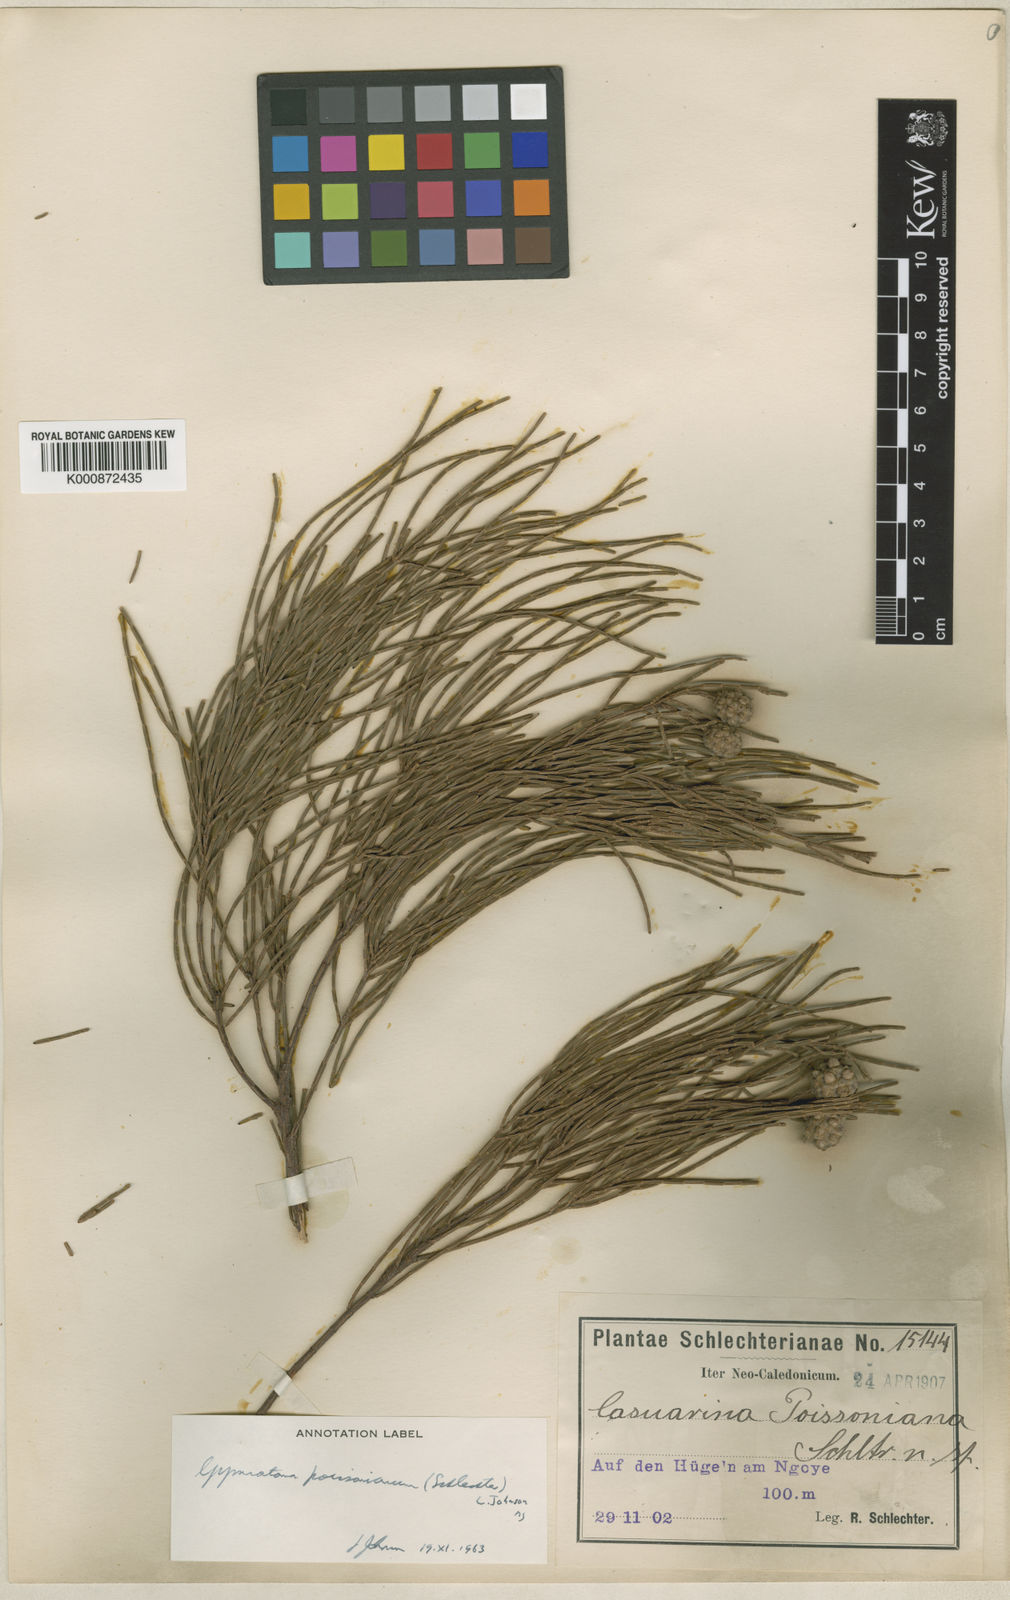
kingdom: Plantae
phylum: Tracheophyta
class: Magnoliopsida
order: Fagales
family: Casuarinaceae
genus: Gymnostoma
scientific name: Gymnostoma poissonianum
